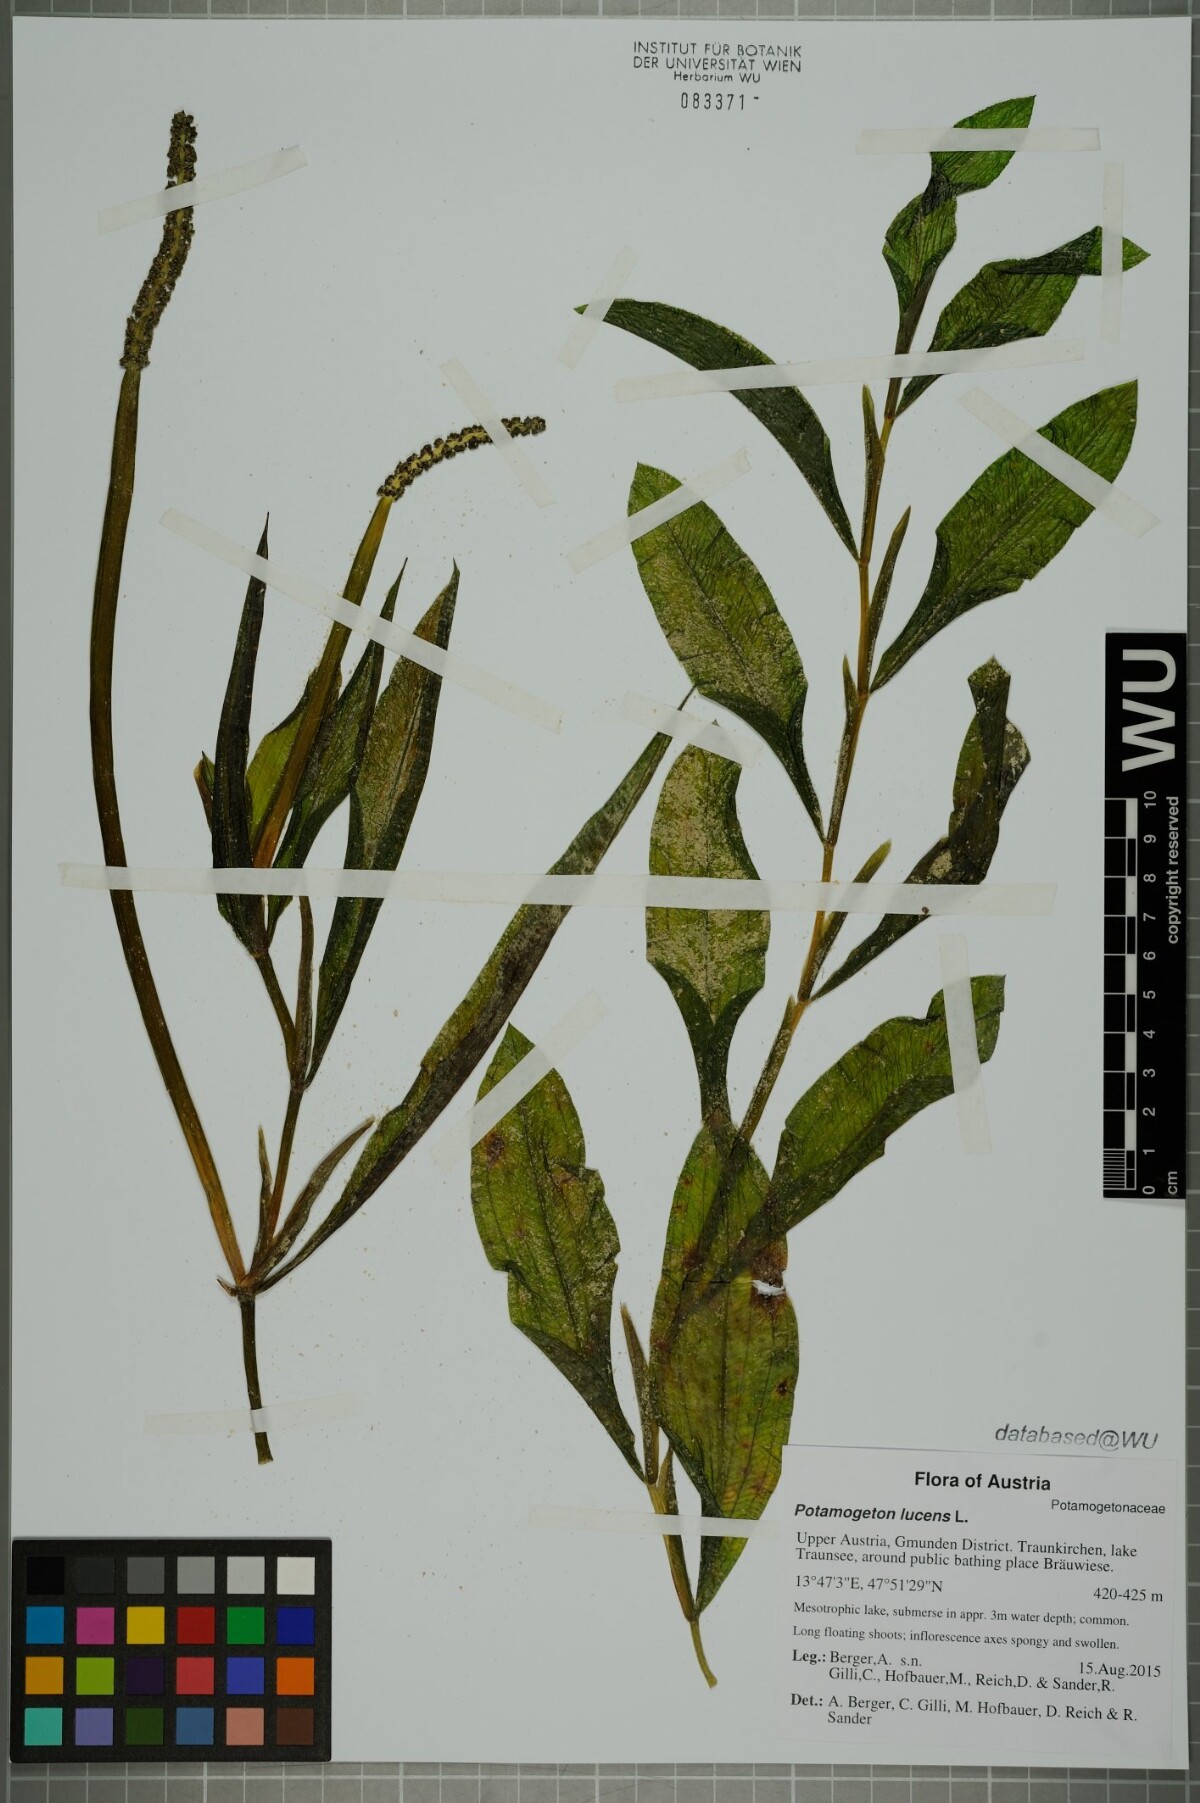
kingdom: Plantae
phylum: Tracheophyta
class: Liliopsida
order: Alismatales
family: Potamogetonaceae
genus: Potamogeton
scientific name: Potamogeton lucens
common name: Shining pondweed
